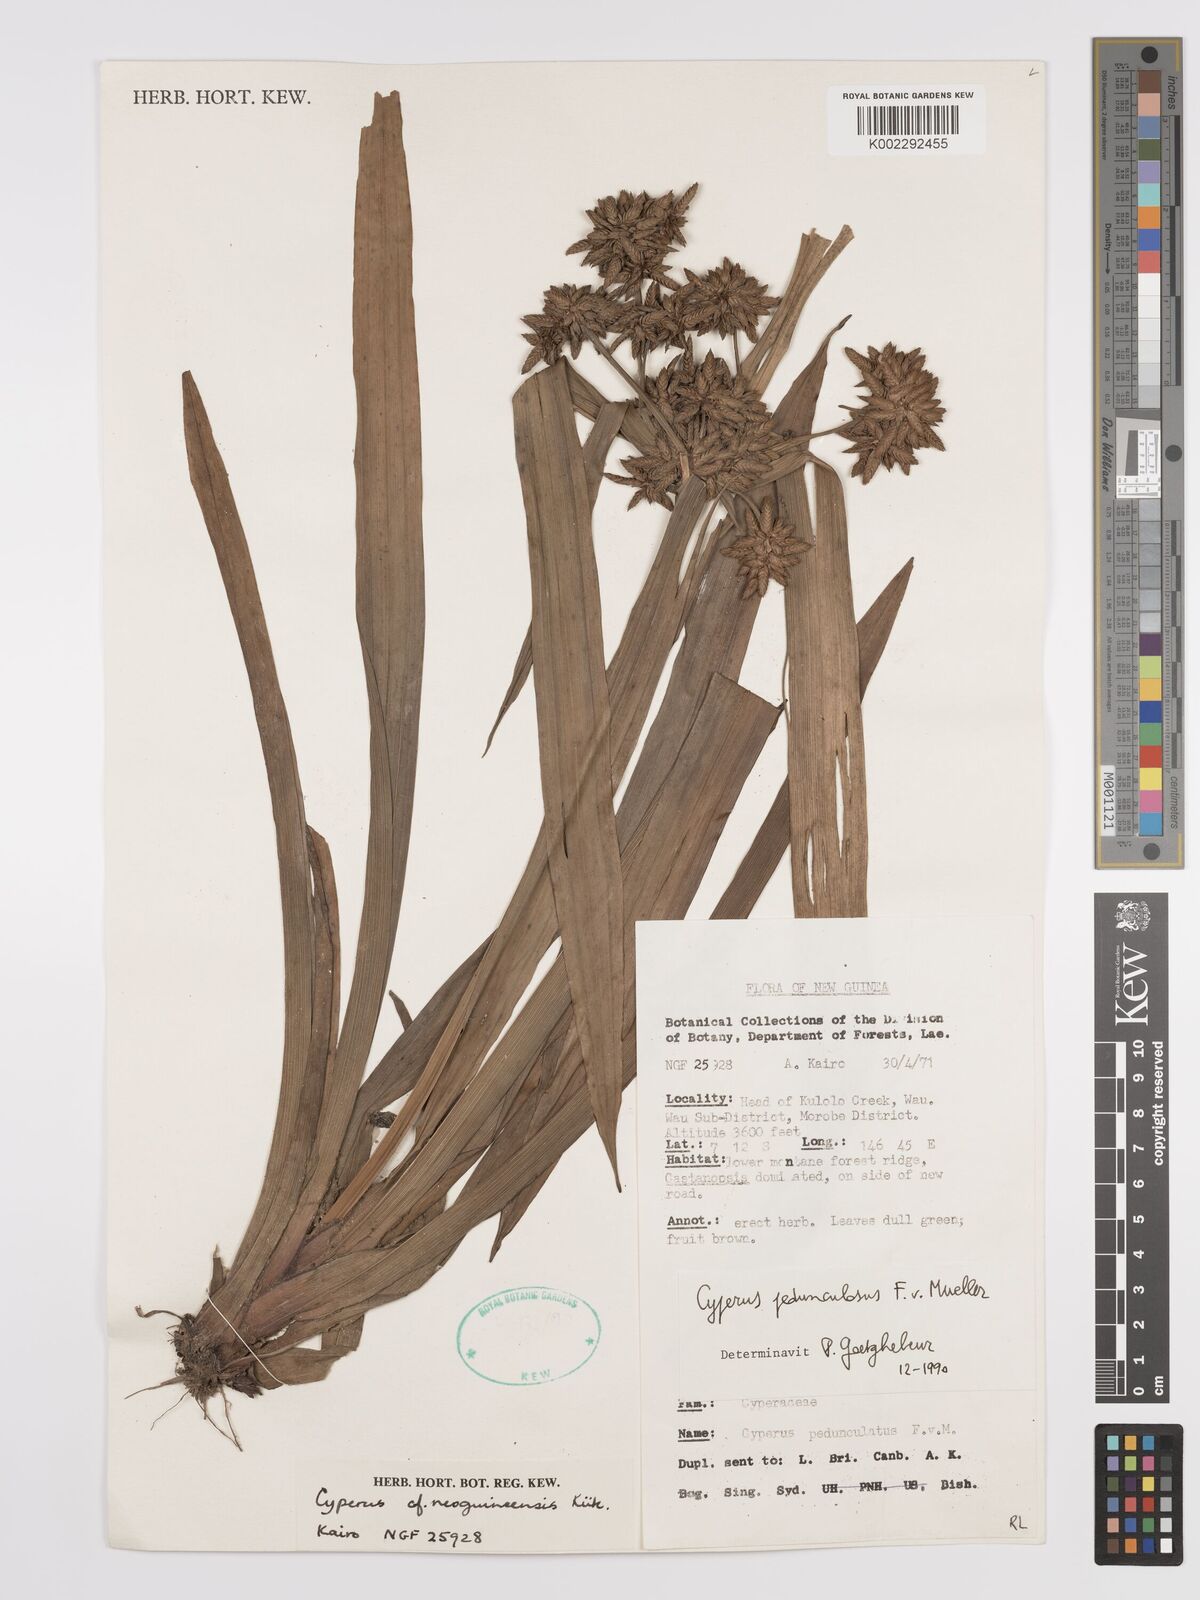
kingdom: Plantae
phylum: Tracheophyta
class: Liliopsida
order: Poales
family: Cyperaceae
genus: Cyperus
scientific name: Cyperus pedunculosus
